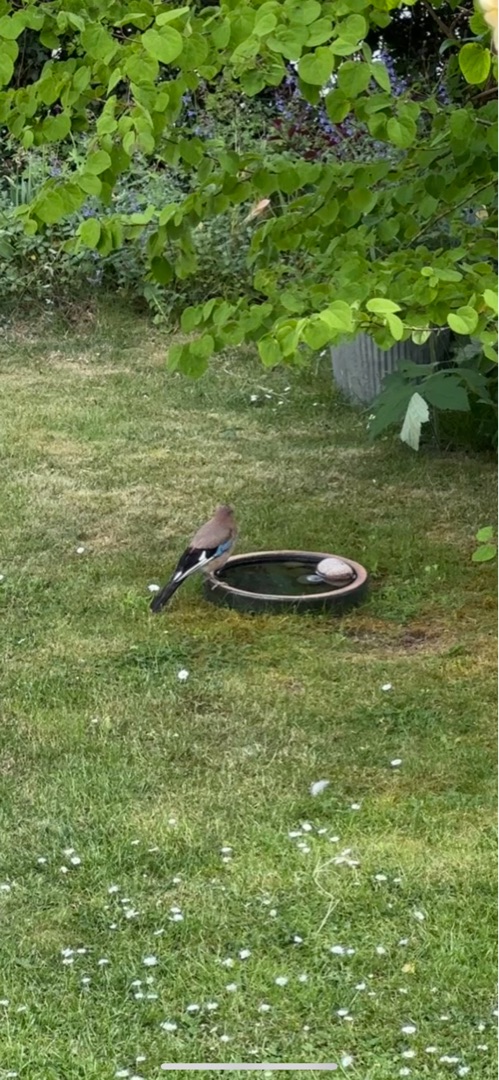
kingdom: Animalia
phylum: Chordata
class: Aves
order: Passeriformes
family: Corvidae
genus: Garrulus
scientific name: Garrulus glandarius
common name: Skovskade
